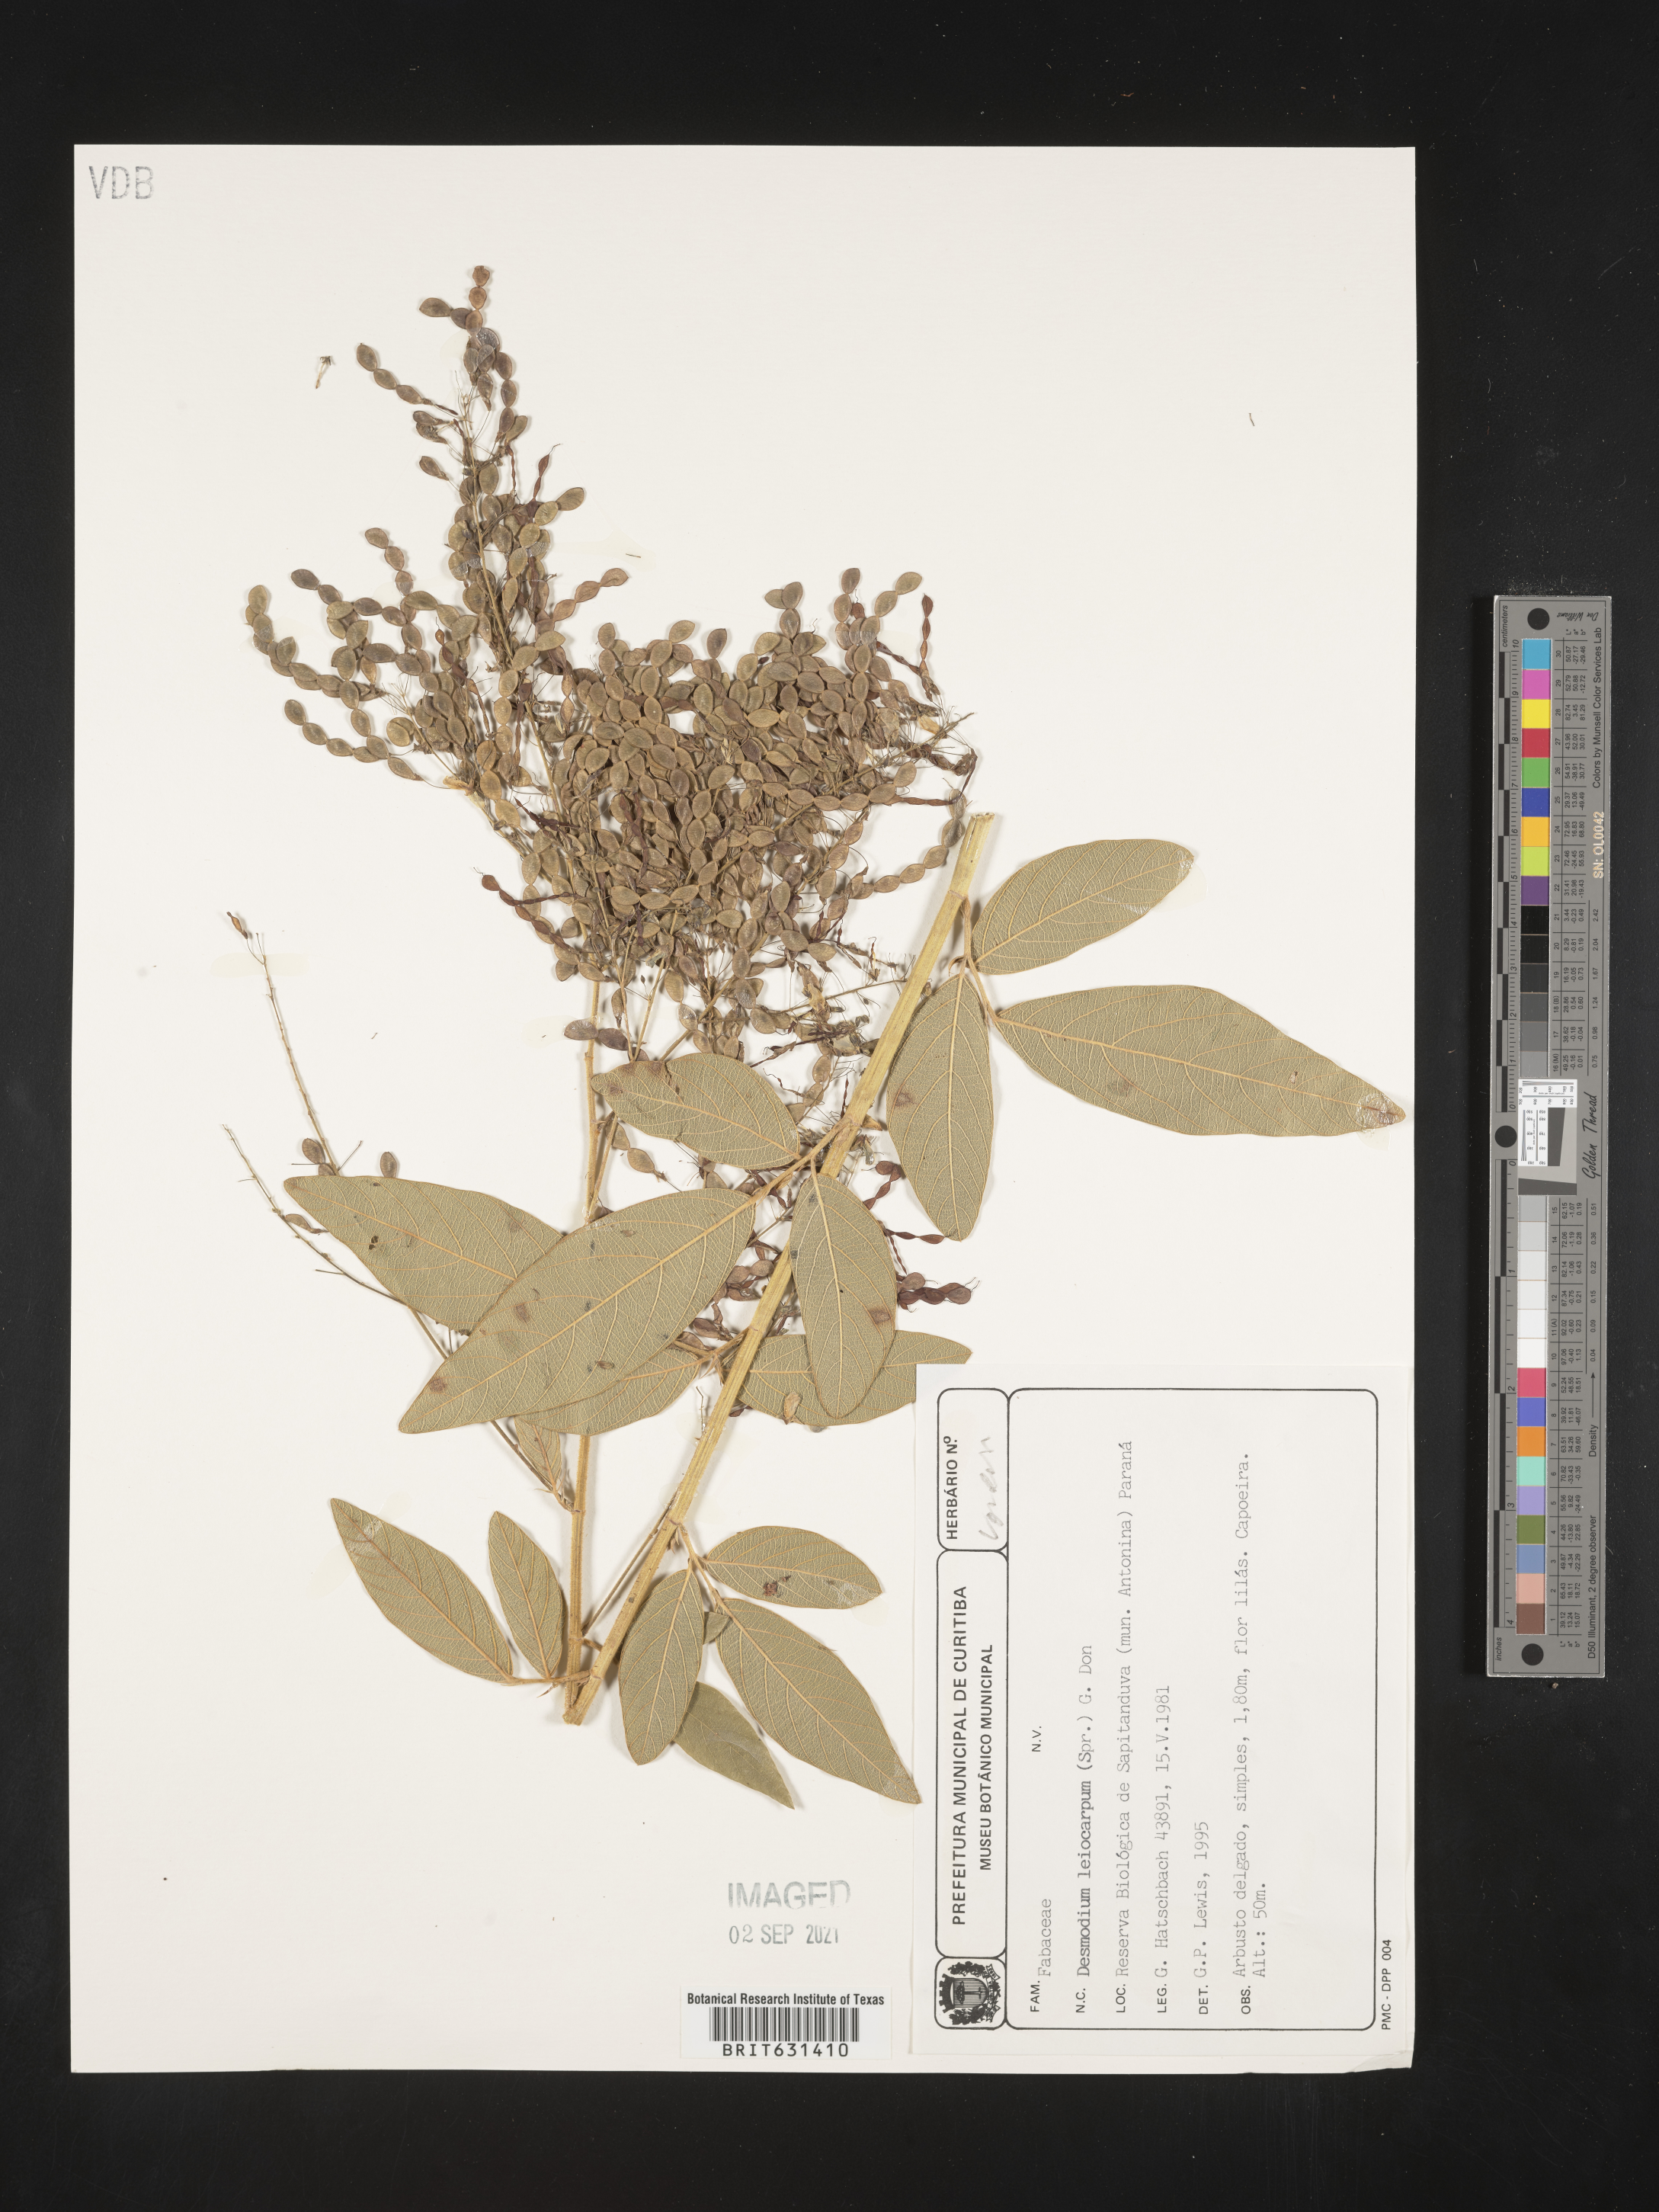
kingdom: Plantae
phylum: Tracheophyta
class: Magnoliopsida
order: Fabales
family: Fabaceae
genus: Desmodium
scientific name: Desmodium leiocarpum
